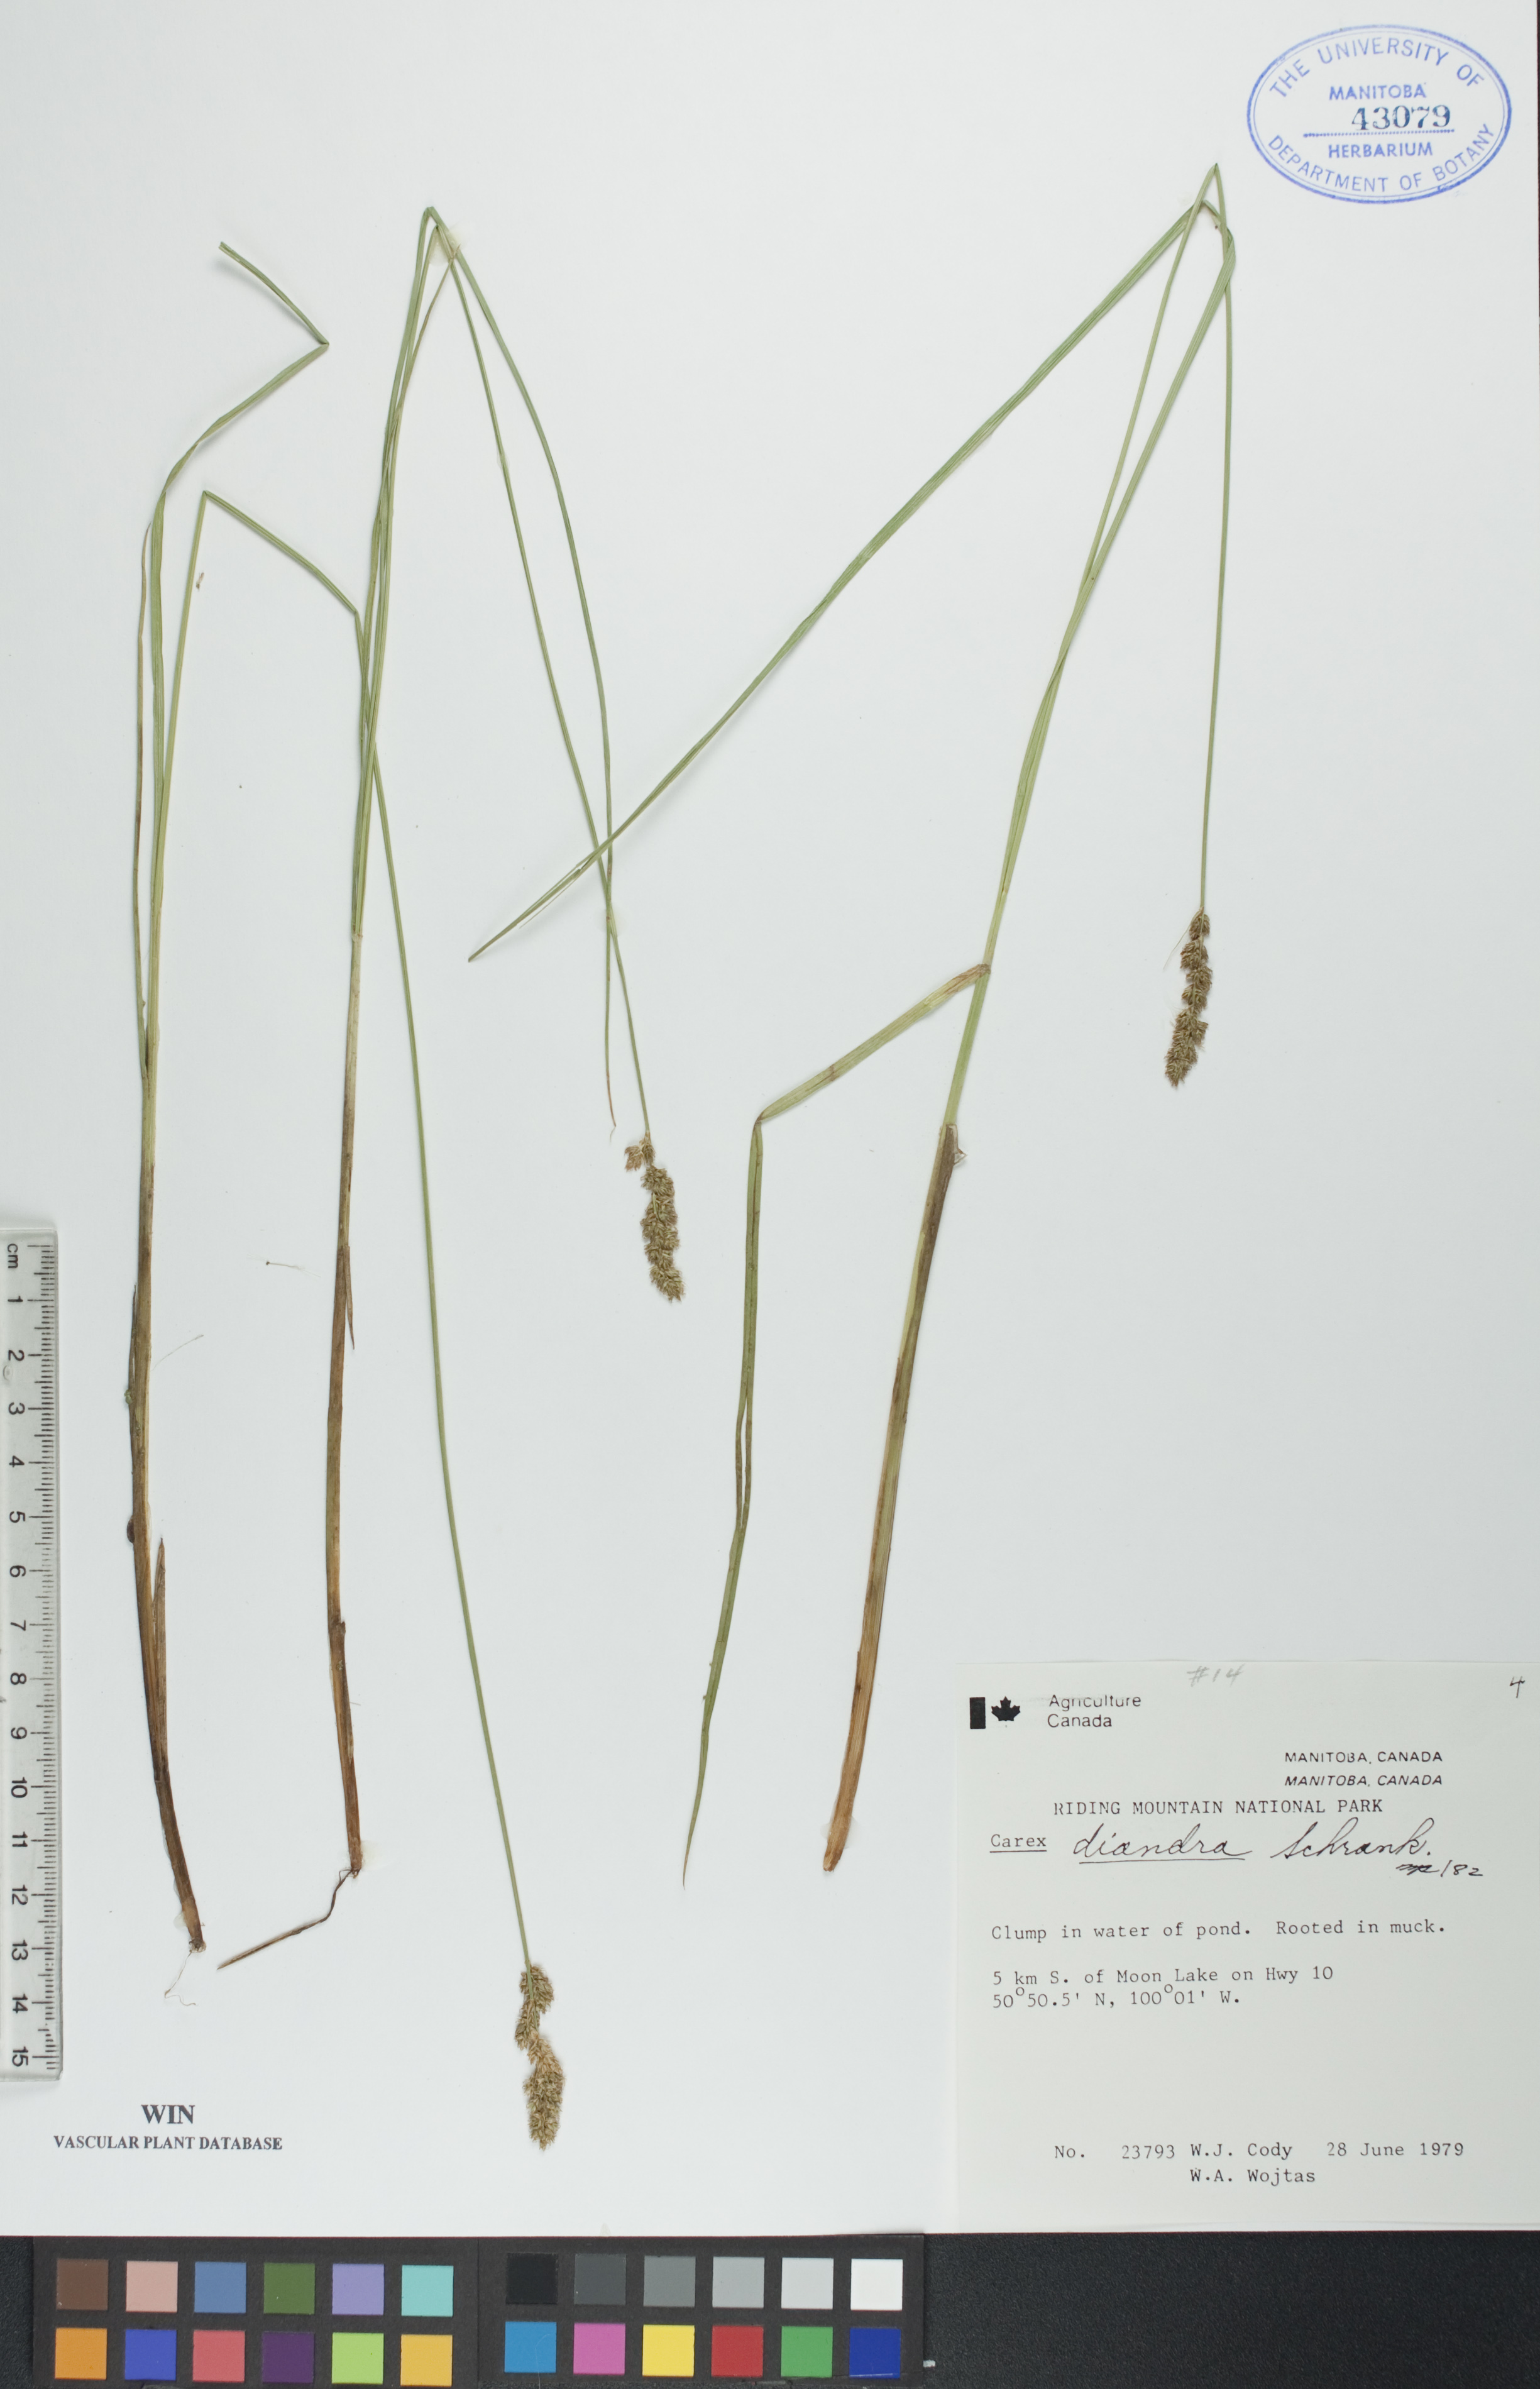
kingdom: Plantae
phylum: Tracheophyta
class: Liliopsida
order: Poales
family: Cyperaceae
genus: Carex
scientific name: Carex diandra
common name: Lesser tussock-sedge
